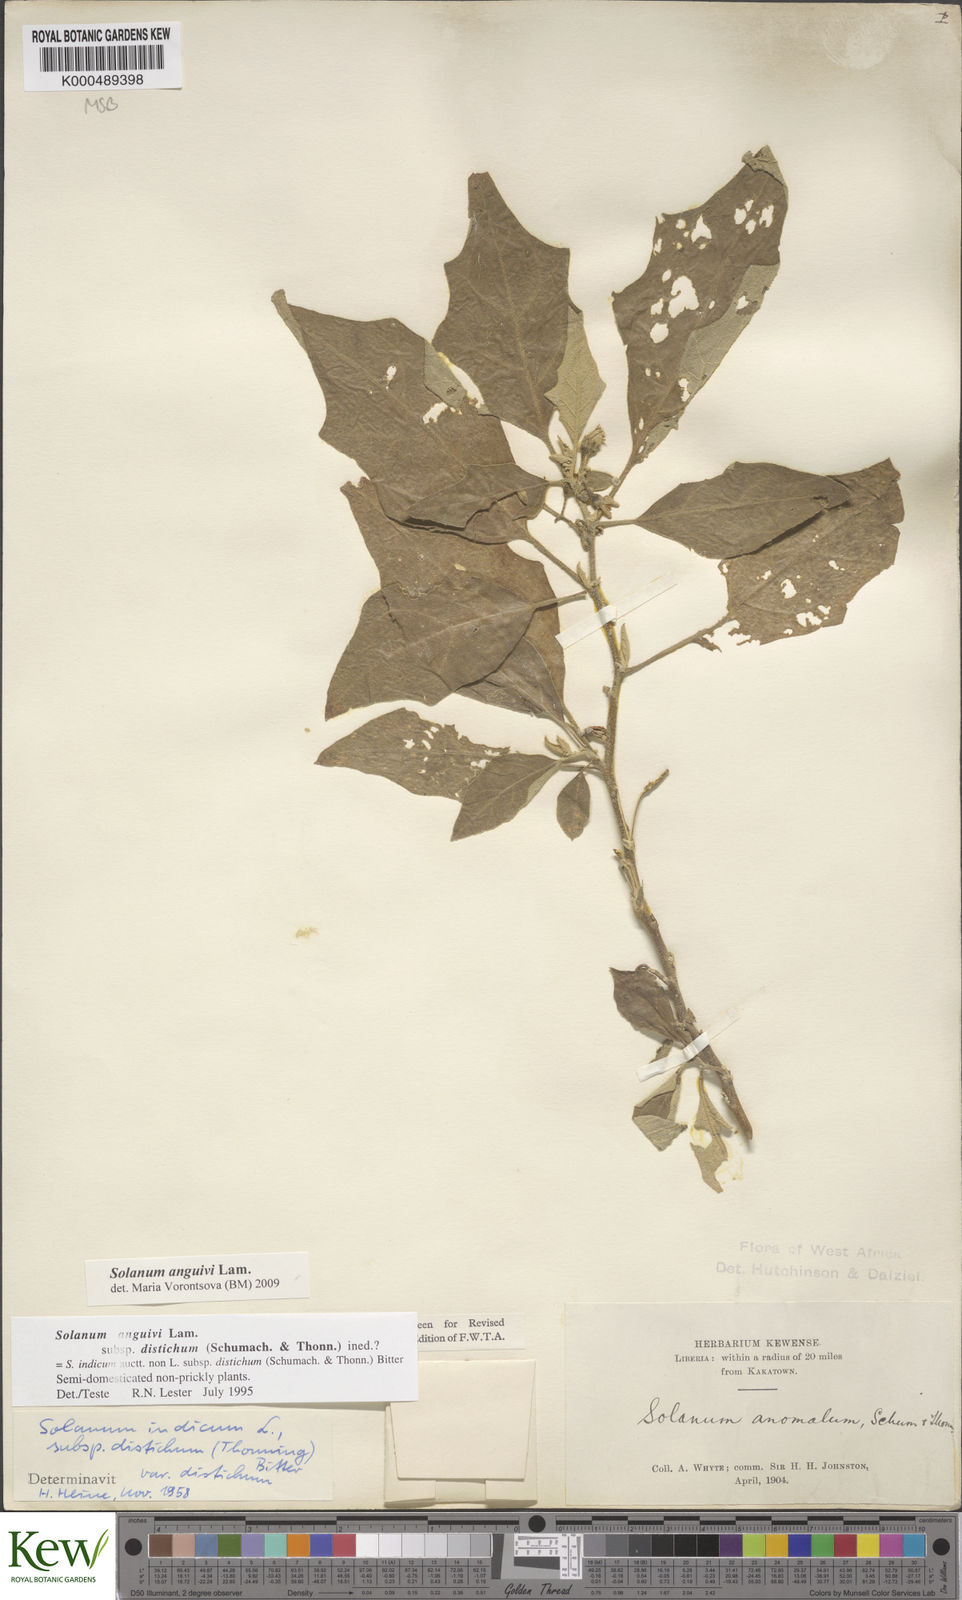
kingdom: Plantae
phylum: Tracheophyta
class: Magnoliopsida
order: Solanales
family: Solanaceae
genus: Solanum
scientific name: Solanum anguivi
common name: Forest bitterberry
